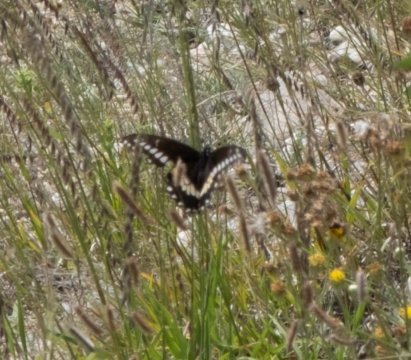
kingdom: Animalia
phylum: Arthropoda
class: Insecta
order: Lepidoptera
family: Papilionidae
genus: Papilio
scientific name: Papilio indra
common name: Indra Swallowtail
